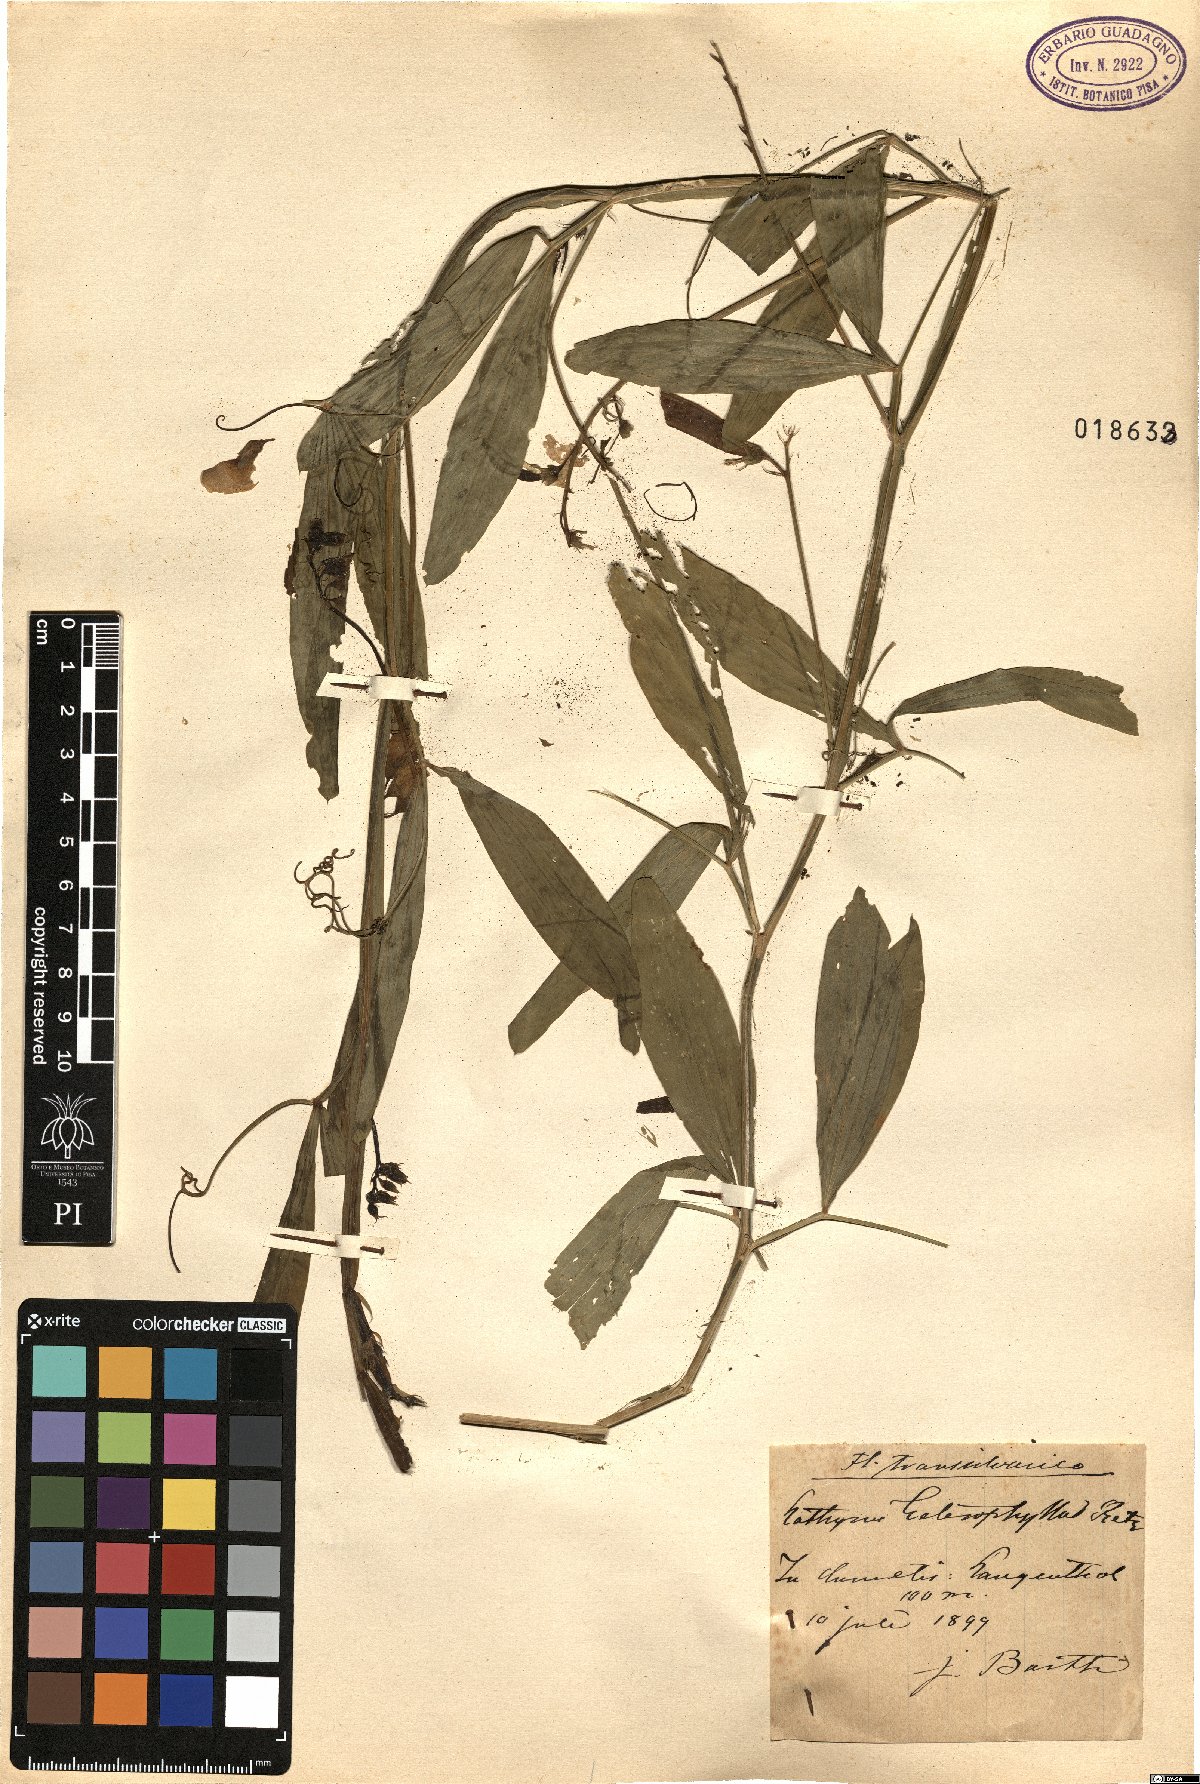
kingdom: Plantae
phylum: Tracheophyta
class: Magnoliopsida
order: Fabales
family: Fabaceae
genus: Lathyrus
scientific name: Lathyrus heterophyllus
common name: Norfolk everlasting-pea
